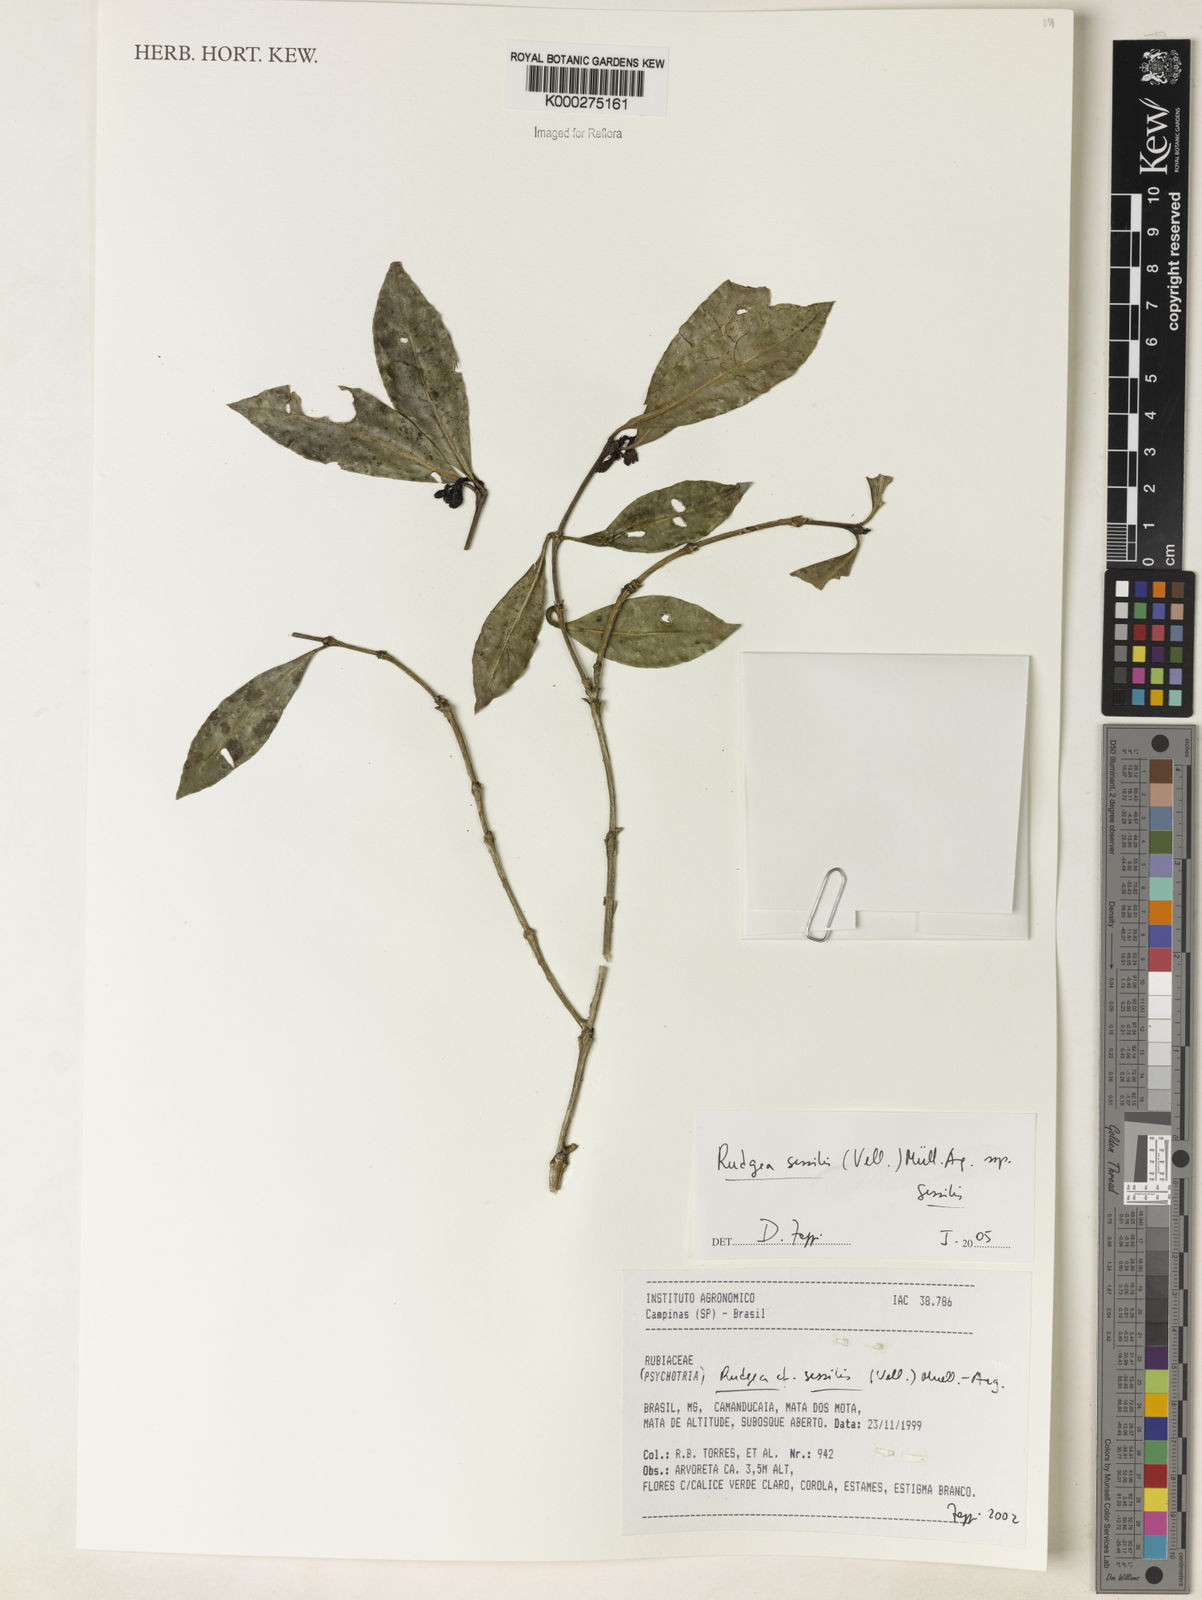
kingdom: Plantae
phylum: Tracheophyta
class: Magnoliopsida
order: Gentianales
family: Rubiaceae
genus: Rudgea
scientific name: Rudgea sessilis
